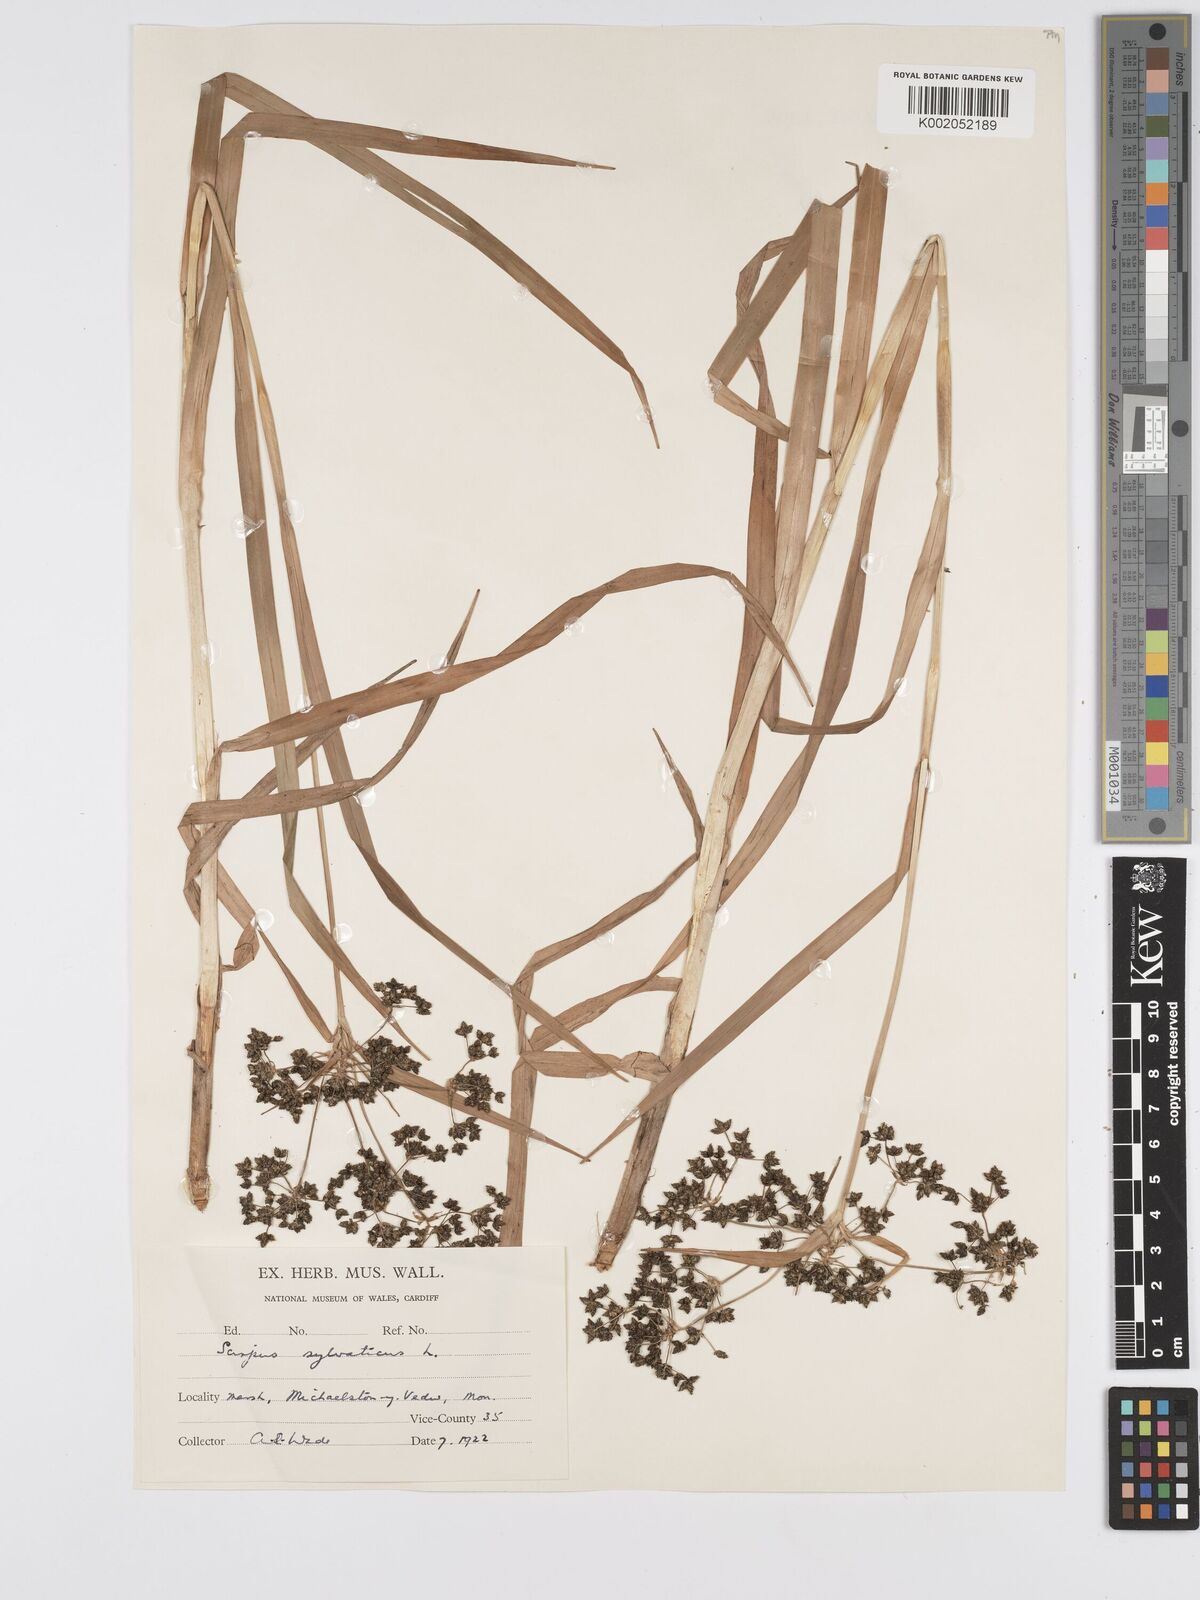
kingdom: Plantae
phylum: Tracheophyta
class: Liliopsida
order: Poales
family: Cyperaceae
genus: Scirpus
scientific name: Scirpus sylvaticus
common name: Wood club-rush
